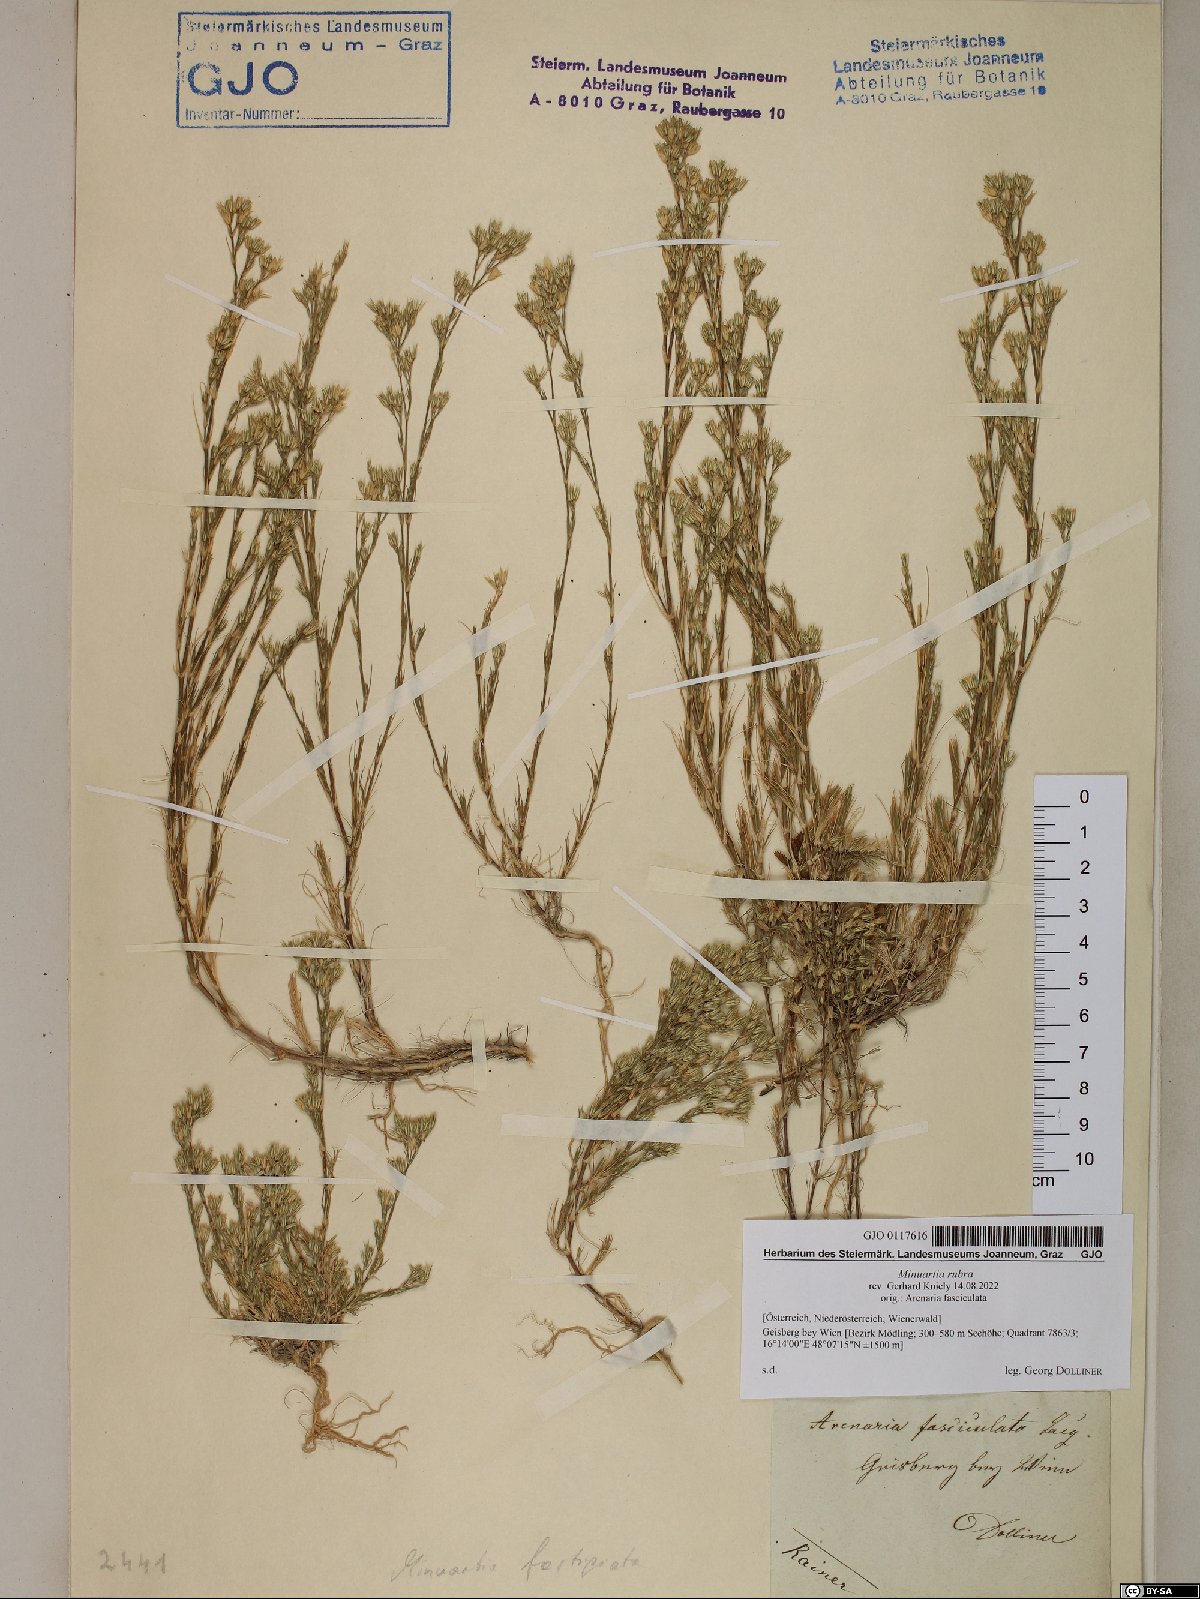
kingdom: Plantae
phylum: Tracheophyta
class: Magnoliopsida
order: Caryophyllales
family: Caryophyllaceae
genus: Minuartia
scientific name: Minuartia mucronata
